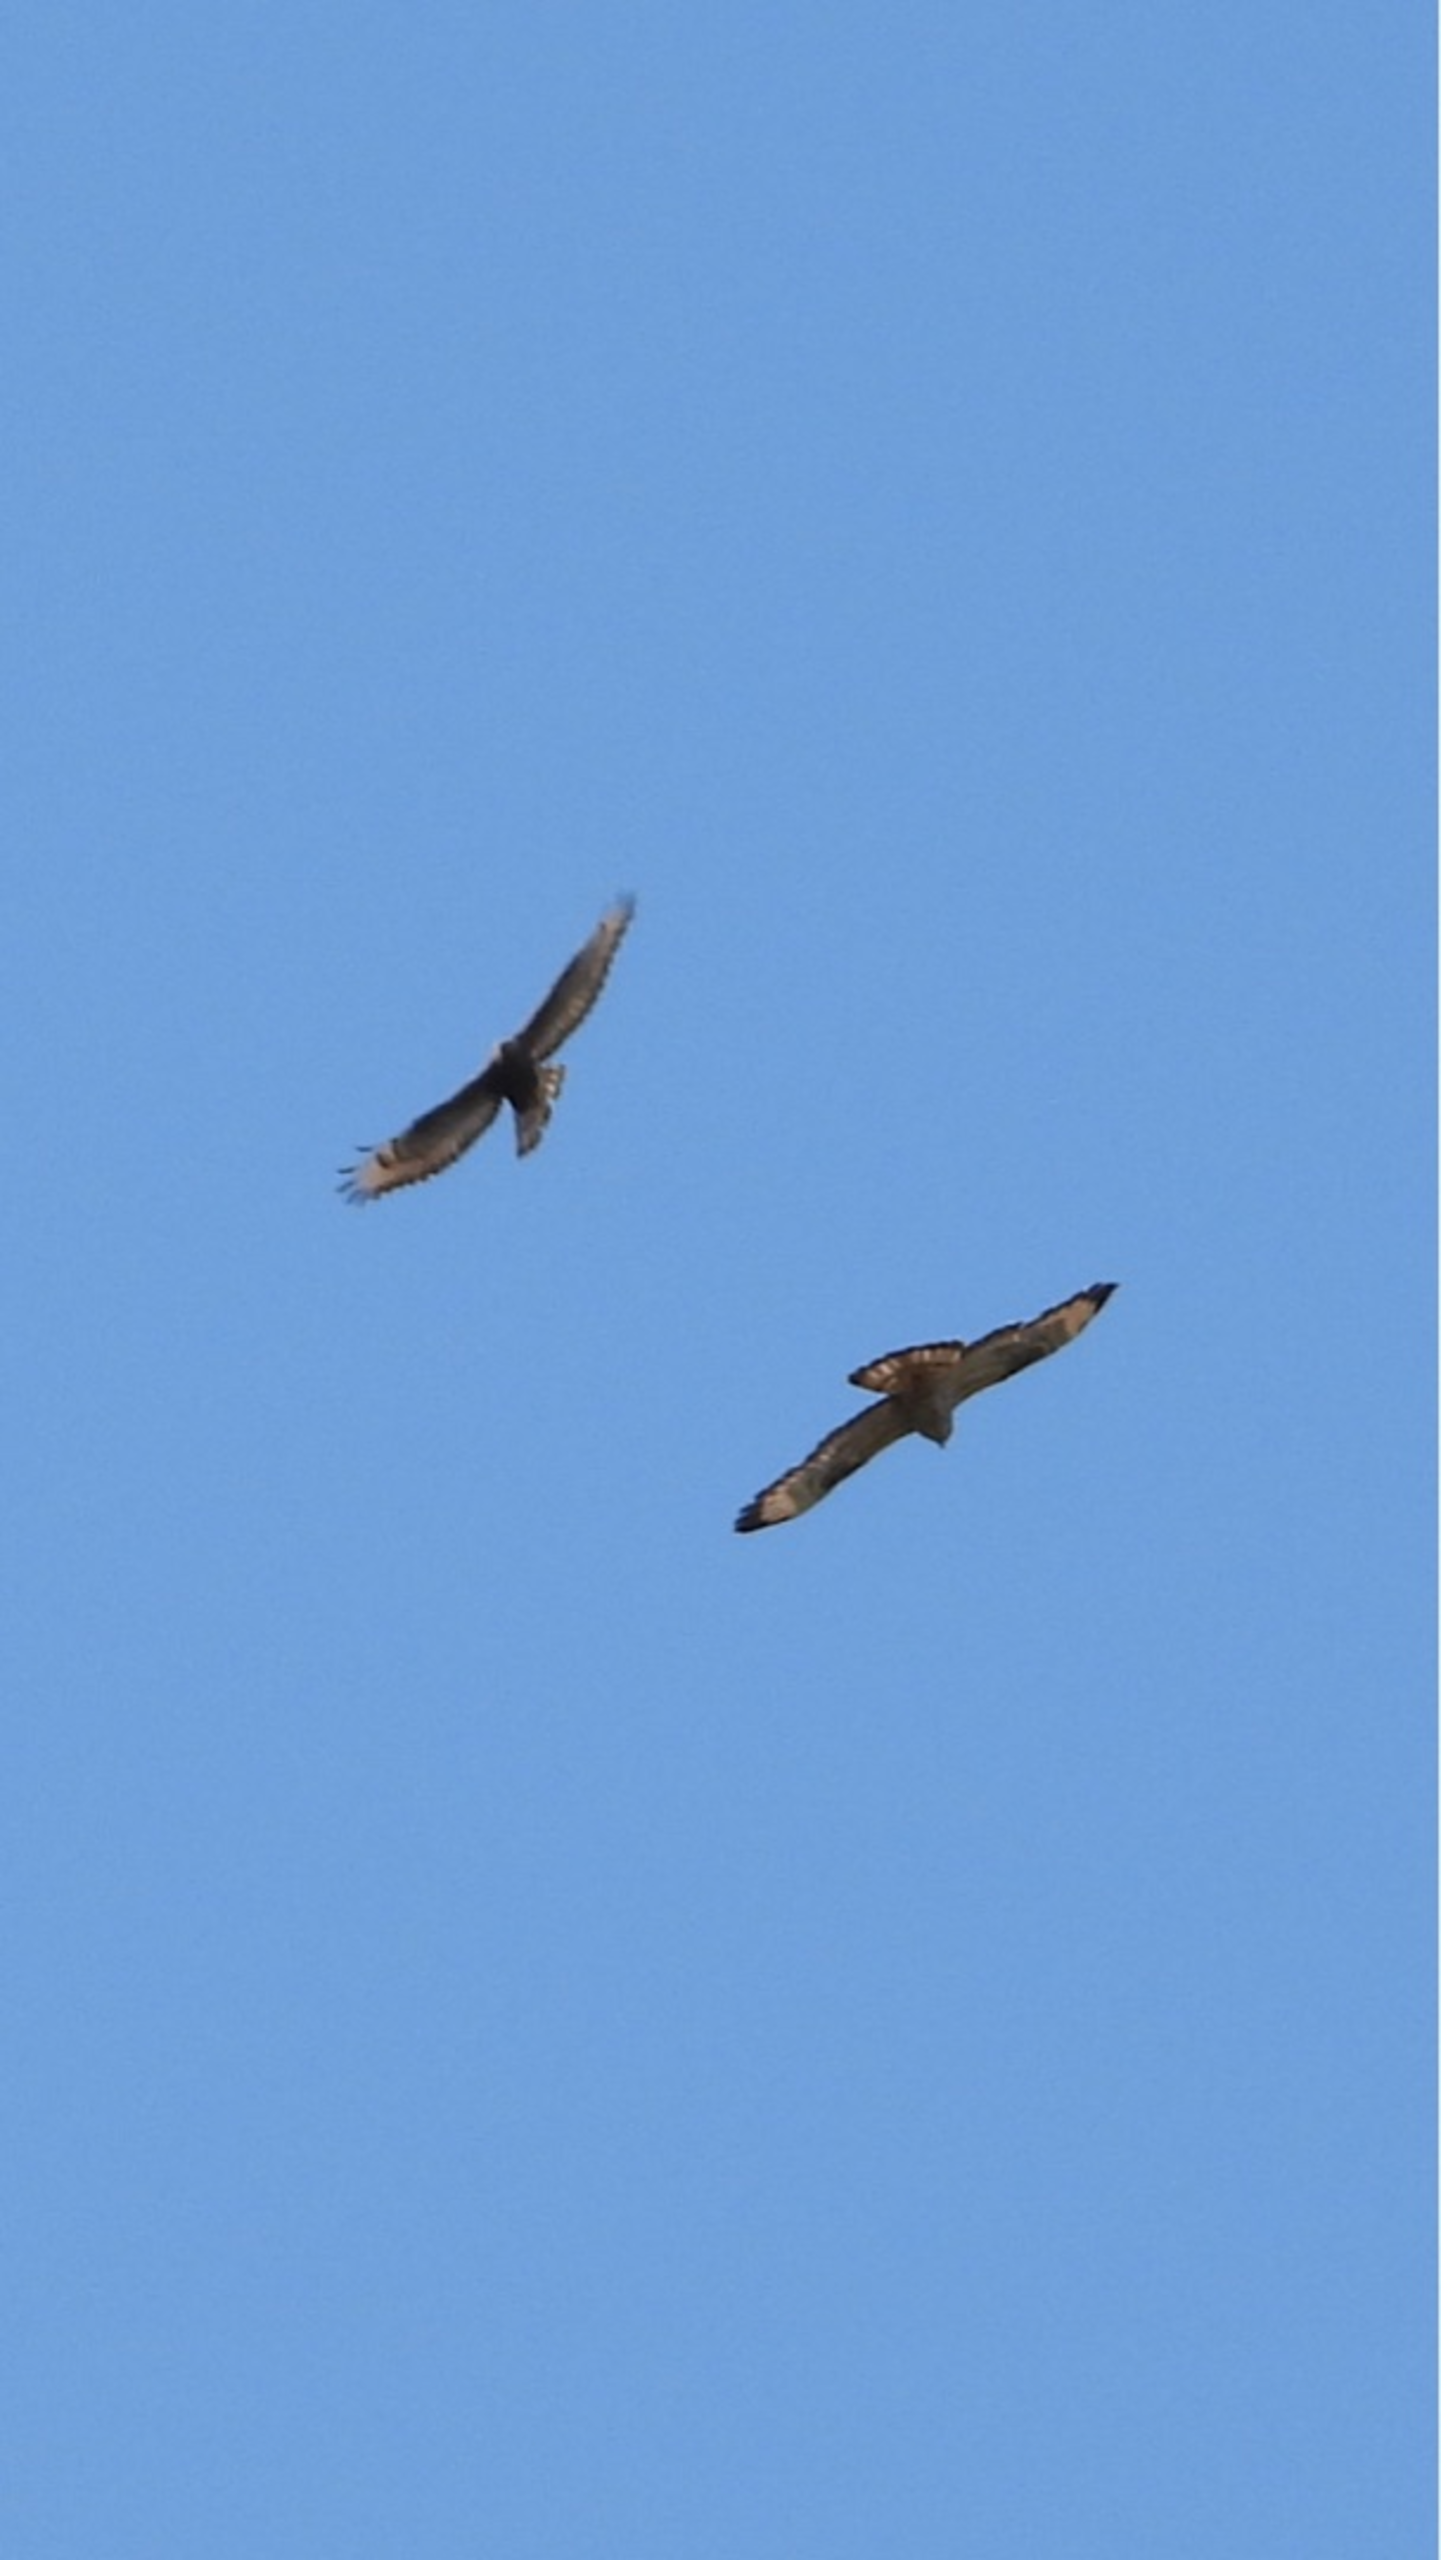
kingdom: Animalia
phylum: Chordata
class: Aves
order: Accipitriformes
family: Accipitridae
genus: Pernis
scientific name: Pernis apivorus
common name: Hvepsevåge
